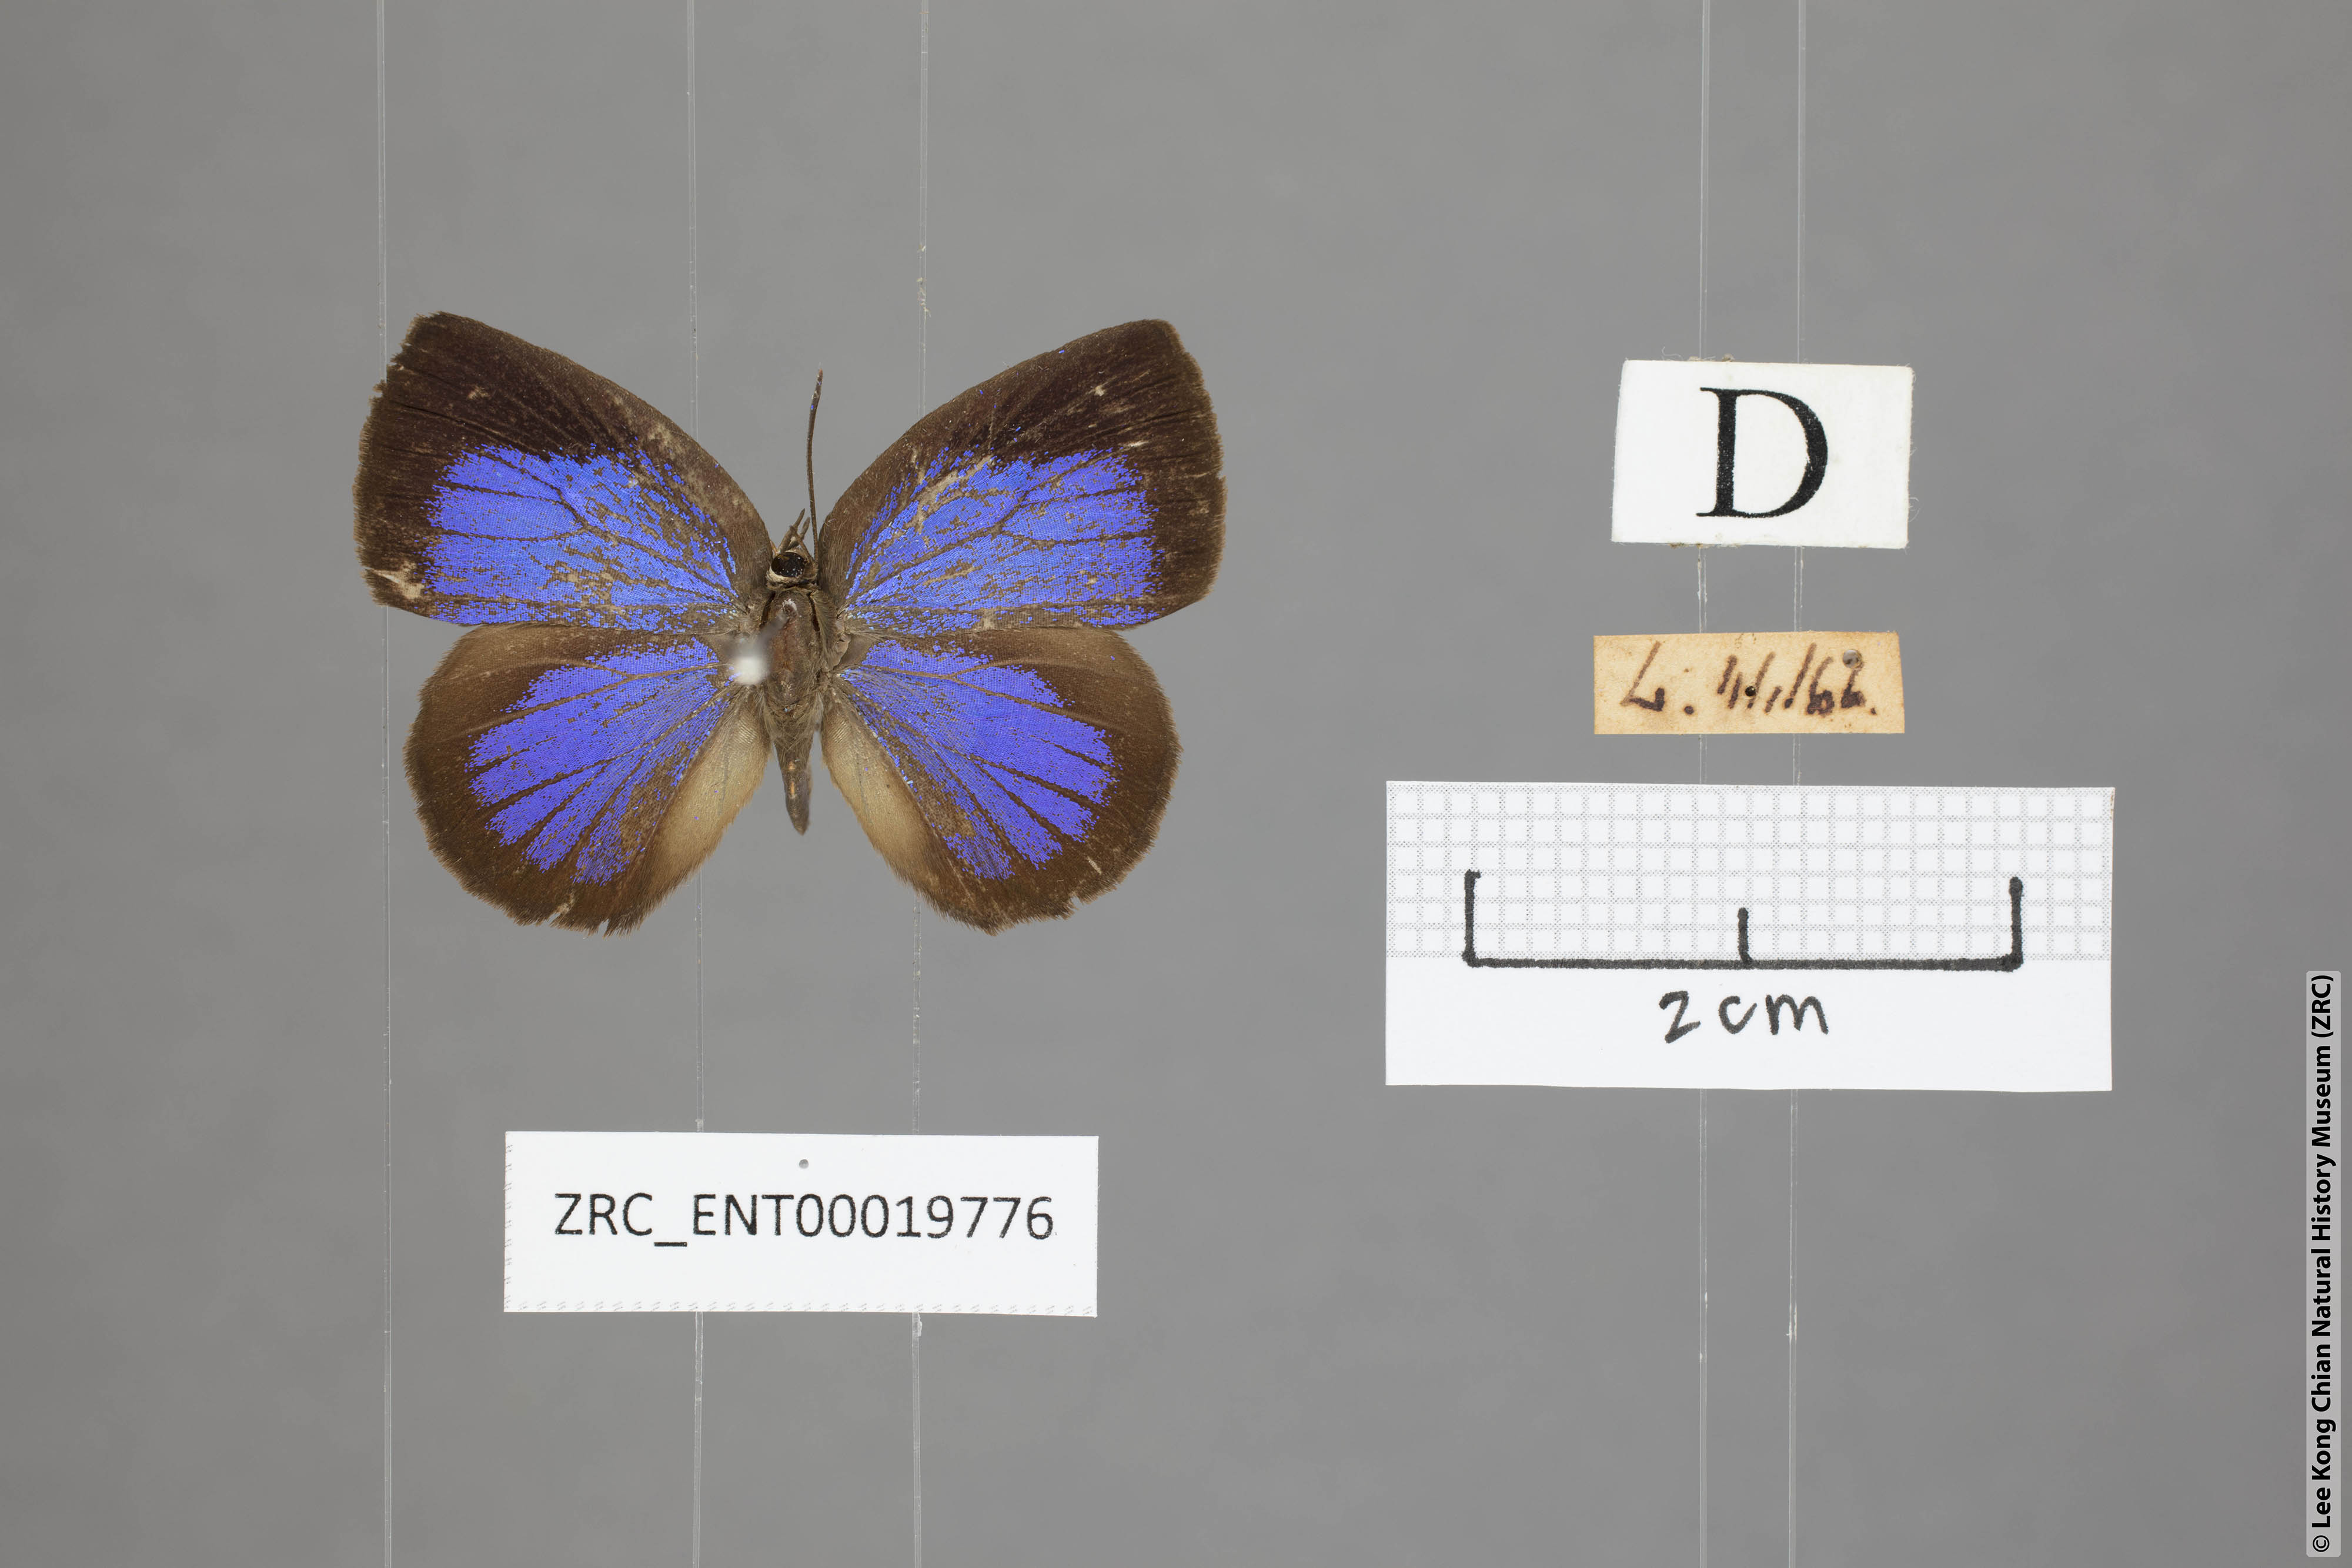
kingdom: Animalia
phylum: Arthropoda
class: Insecta
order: Lepidoptera
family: Lycaenidae
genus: Arhopala
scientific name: Arhopala perimuta
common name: Yellowdisc oakblue
